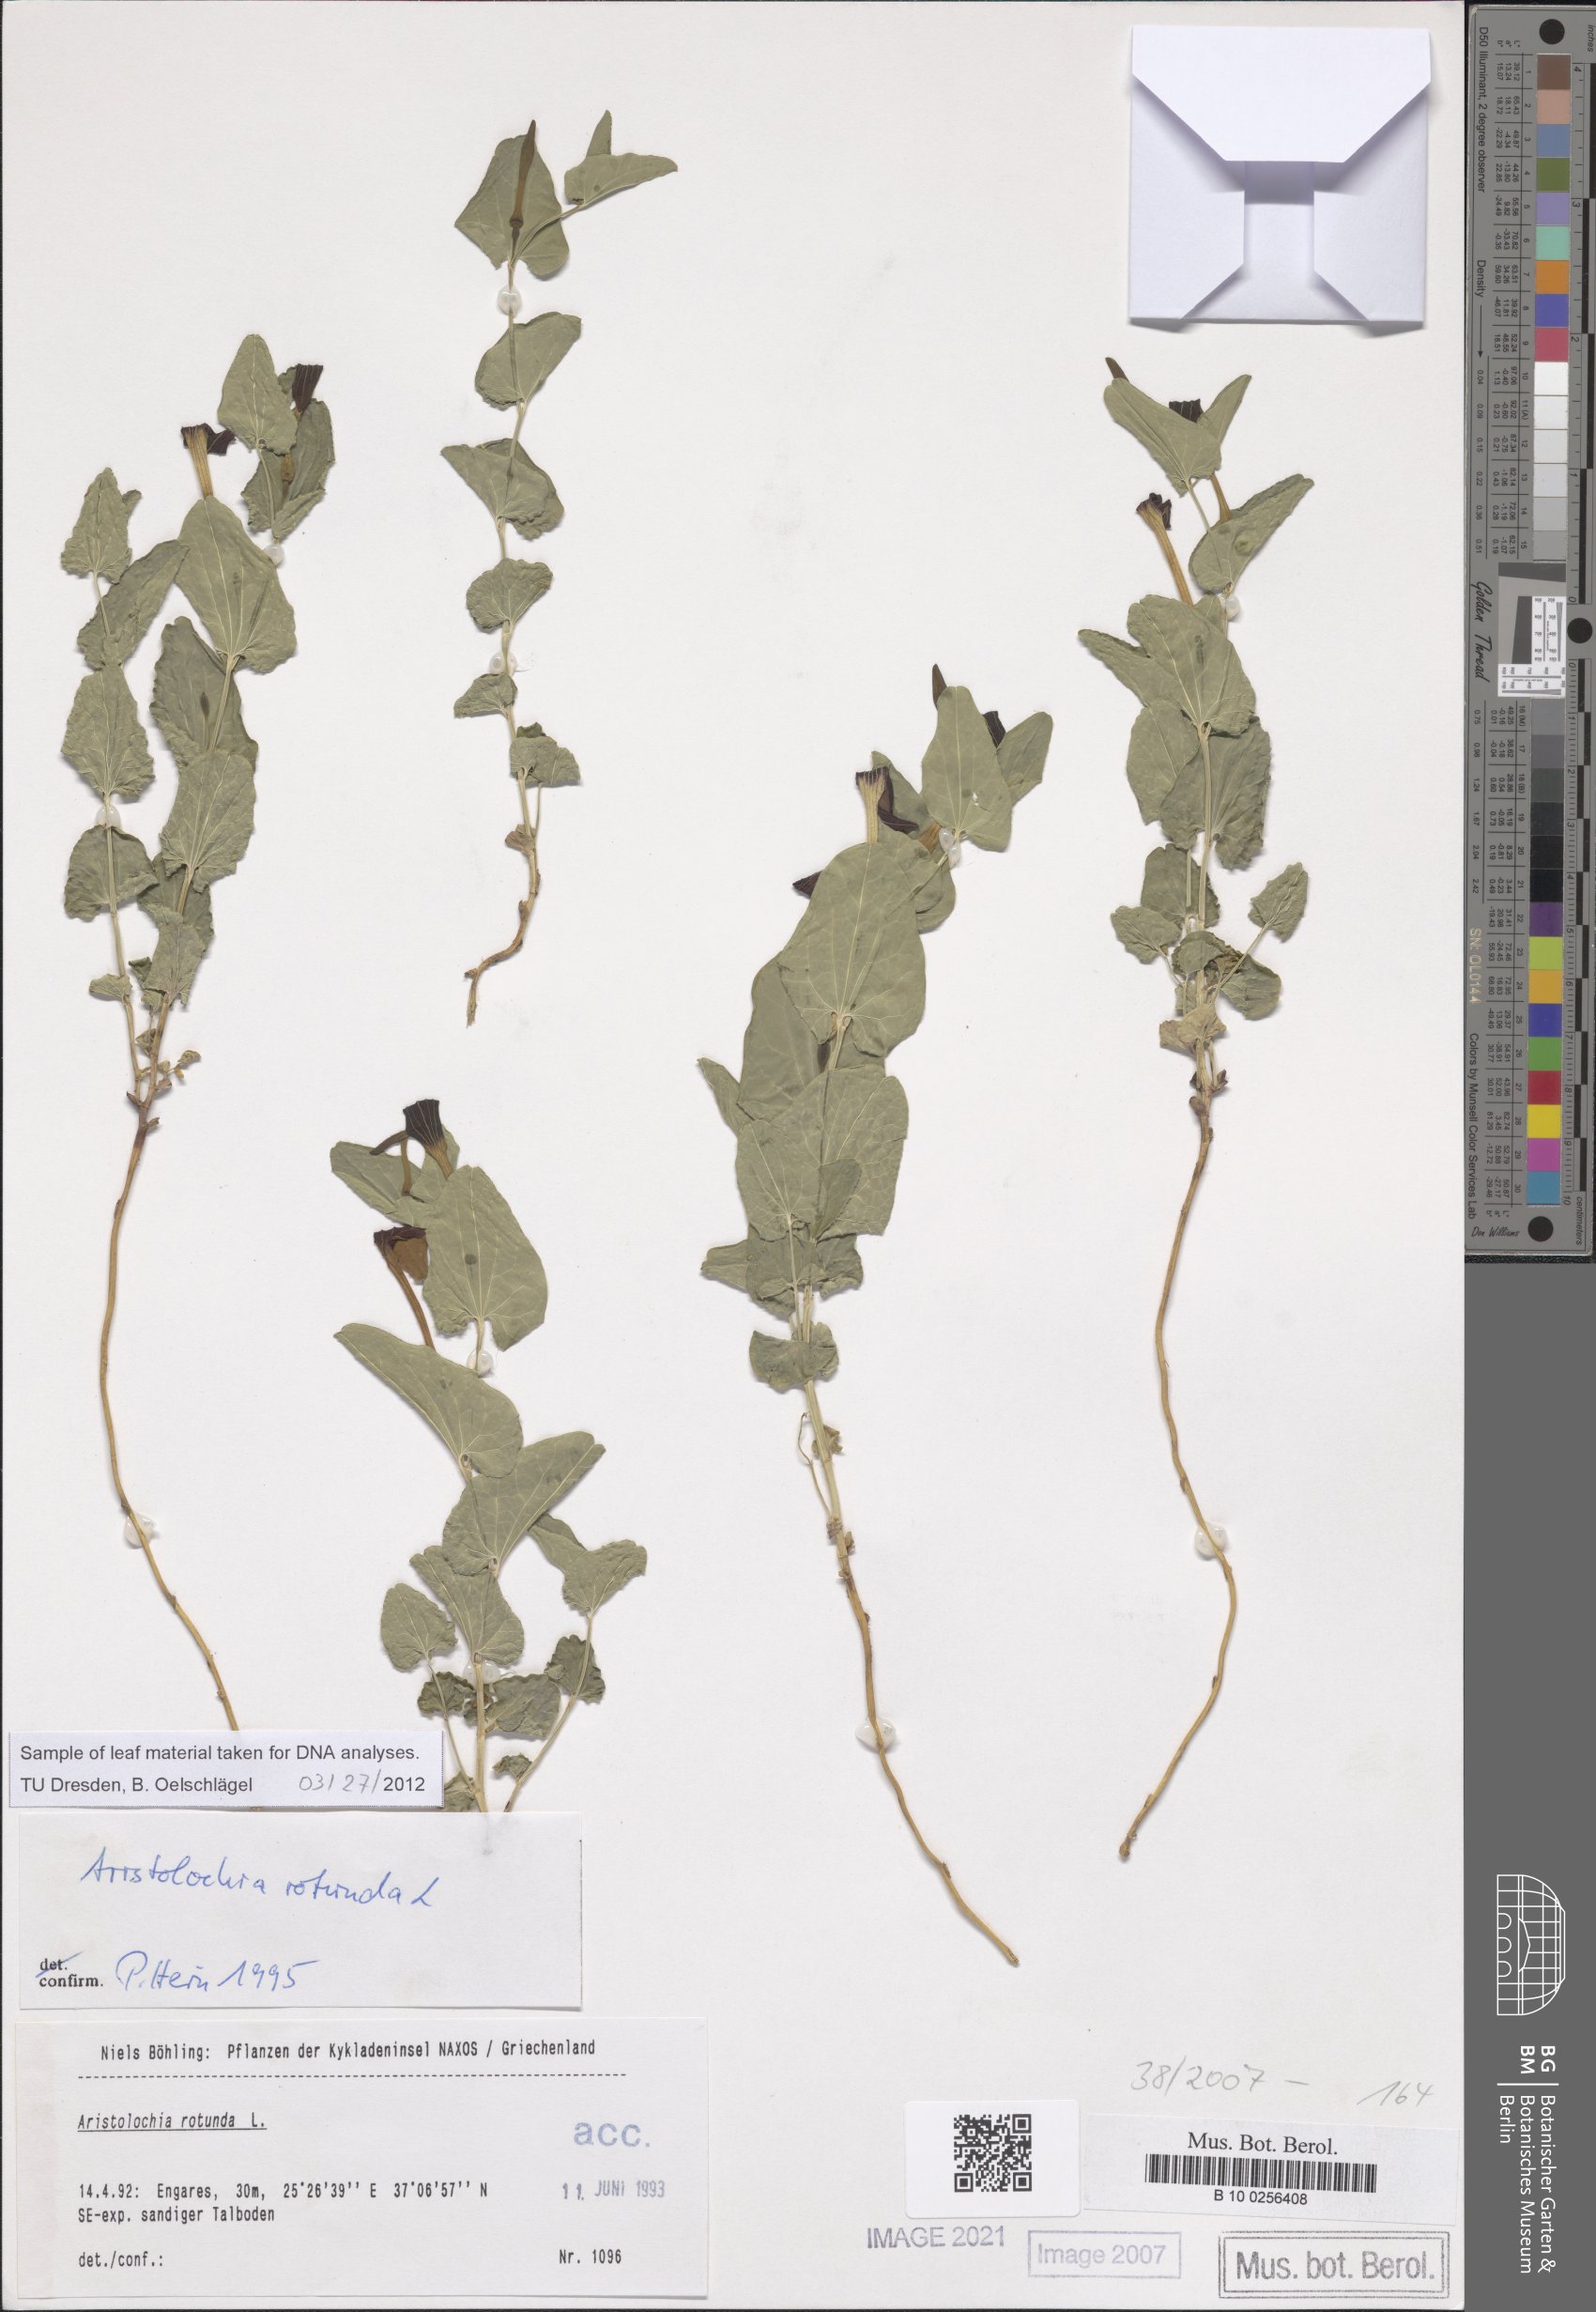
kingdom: Plantae
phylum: Tracheophyta
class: Magnoliopsida
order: Piperales
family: Aristolochiaceae
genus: Aristolochia
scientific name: Aristolochia rotunda
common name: Smearwort
